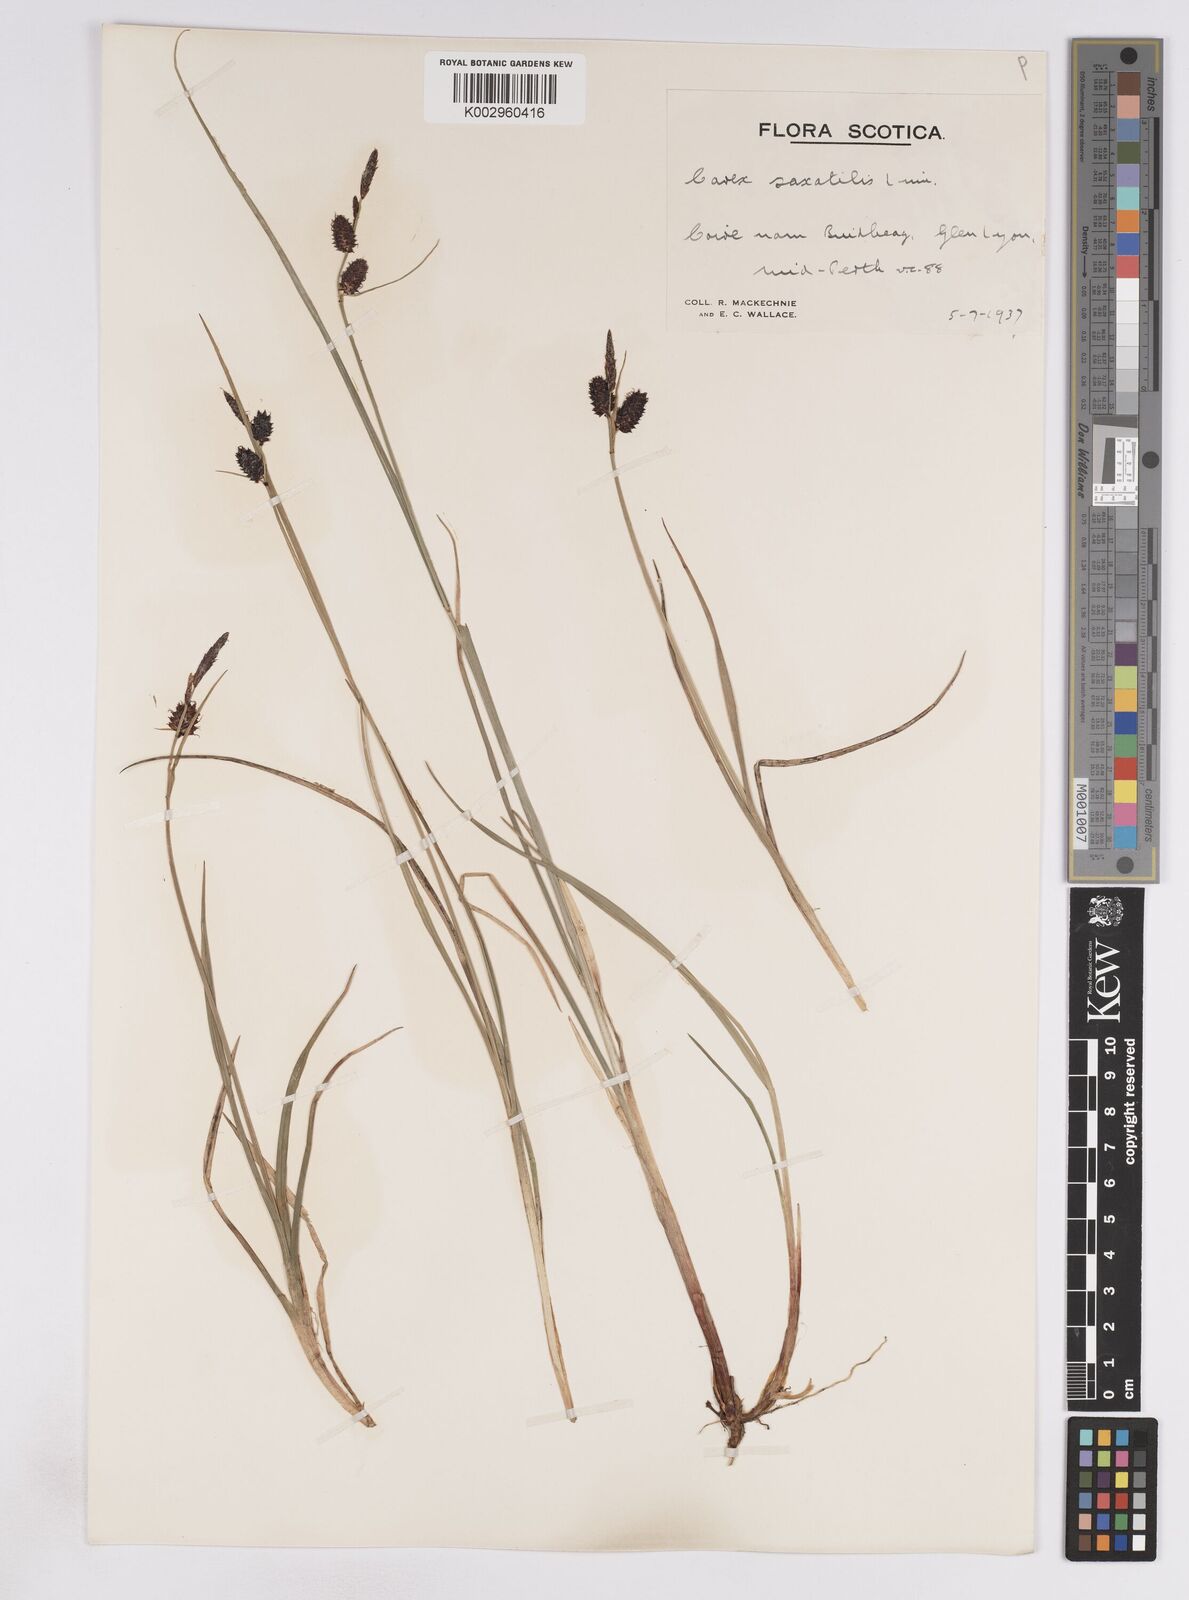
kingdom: Plantae
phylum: Tracheophyta
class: Liliopsida
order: Poales
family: Cyperaceae
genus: Carex
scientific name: Carex saxatilis
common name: Russet sedge
